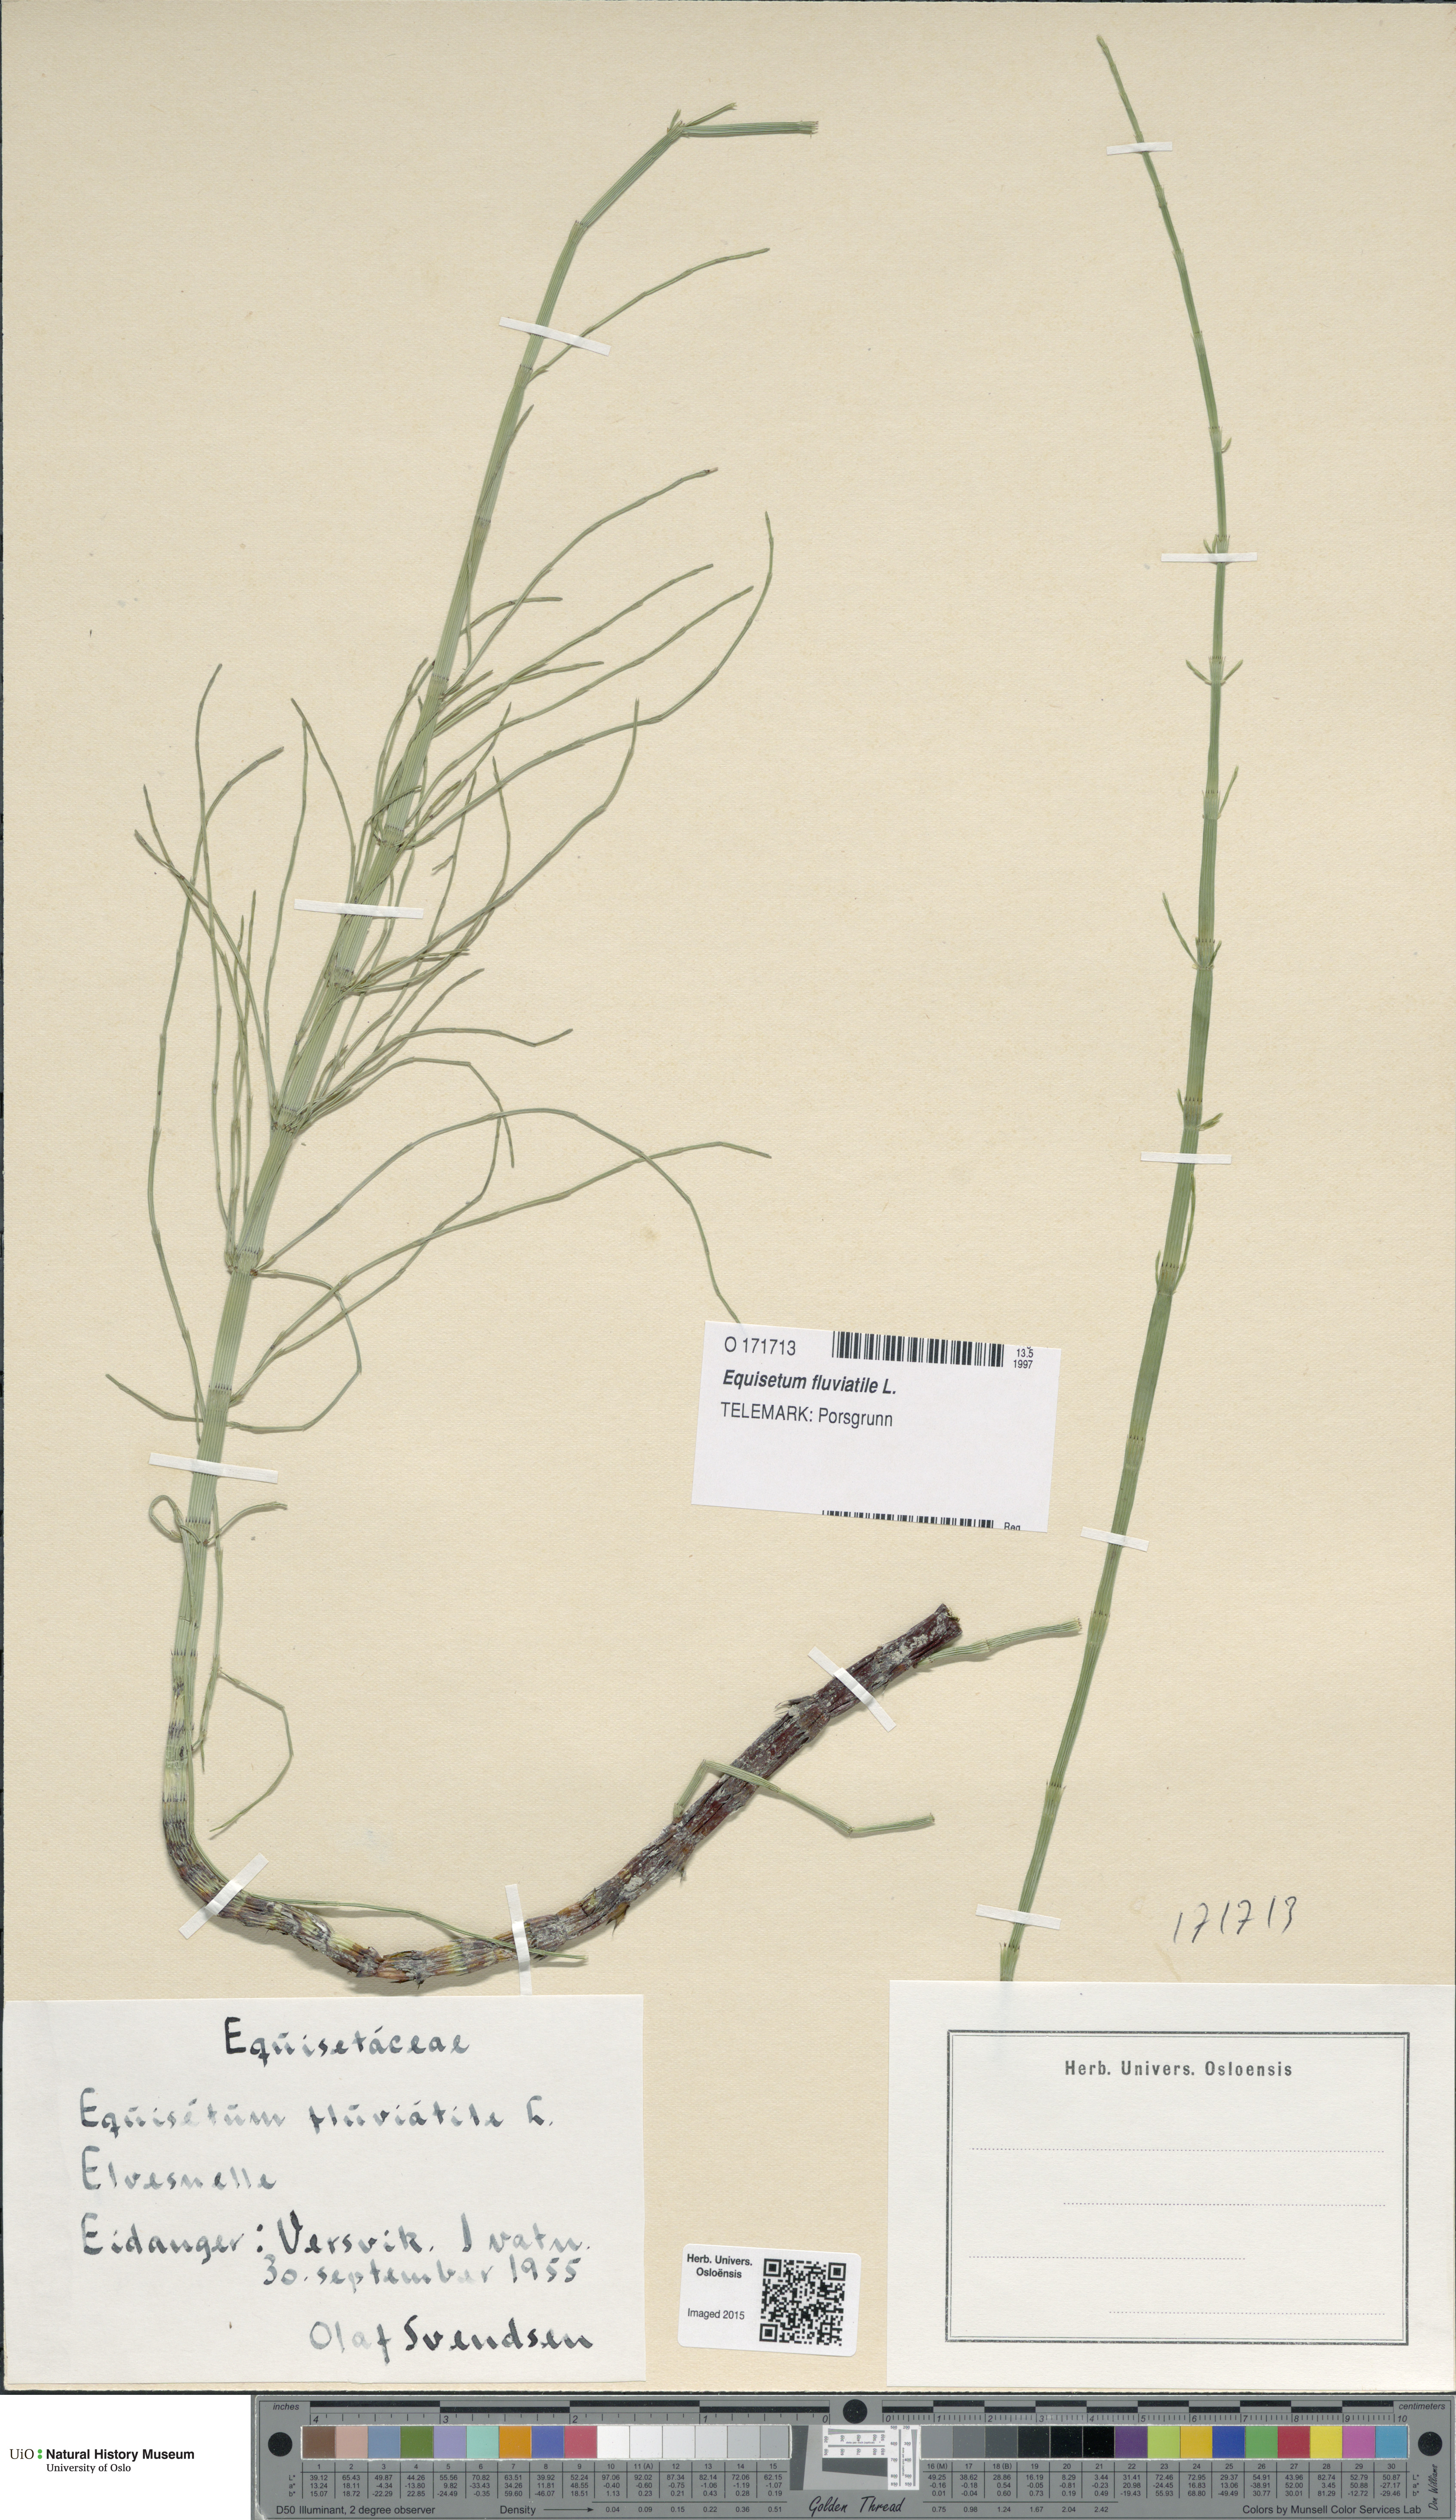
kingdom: Plantae
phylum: Tracheophyta
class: Polypodiopsida
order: Equisetales
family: Equisetaceae
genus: Equisetum
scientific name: Equisetum fluviatile
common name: Water horsetail
